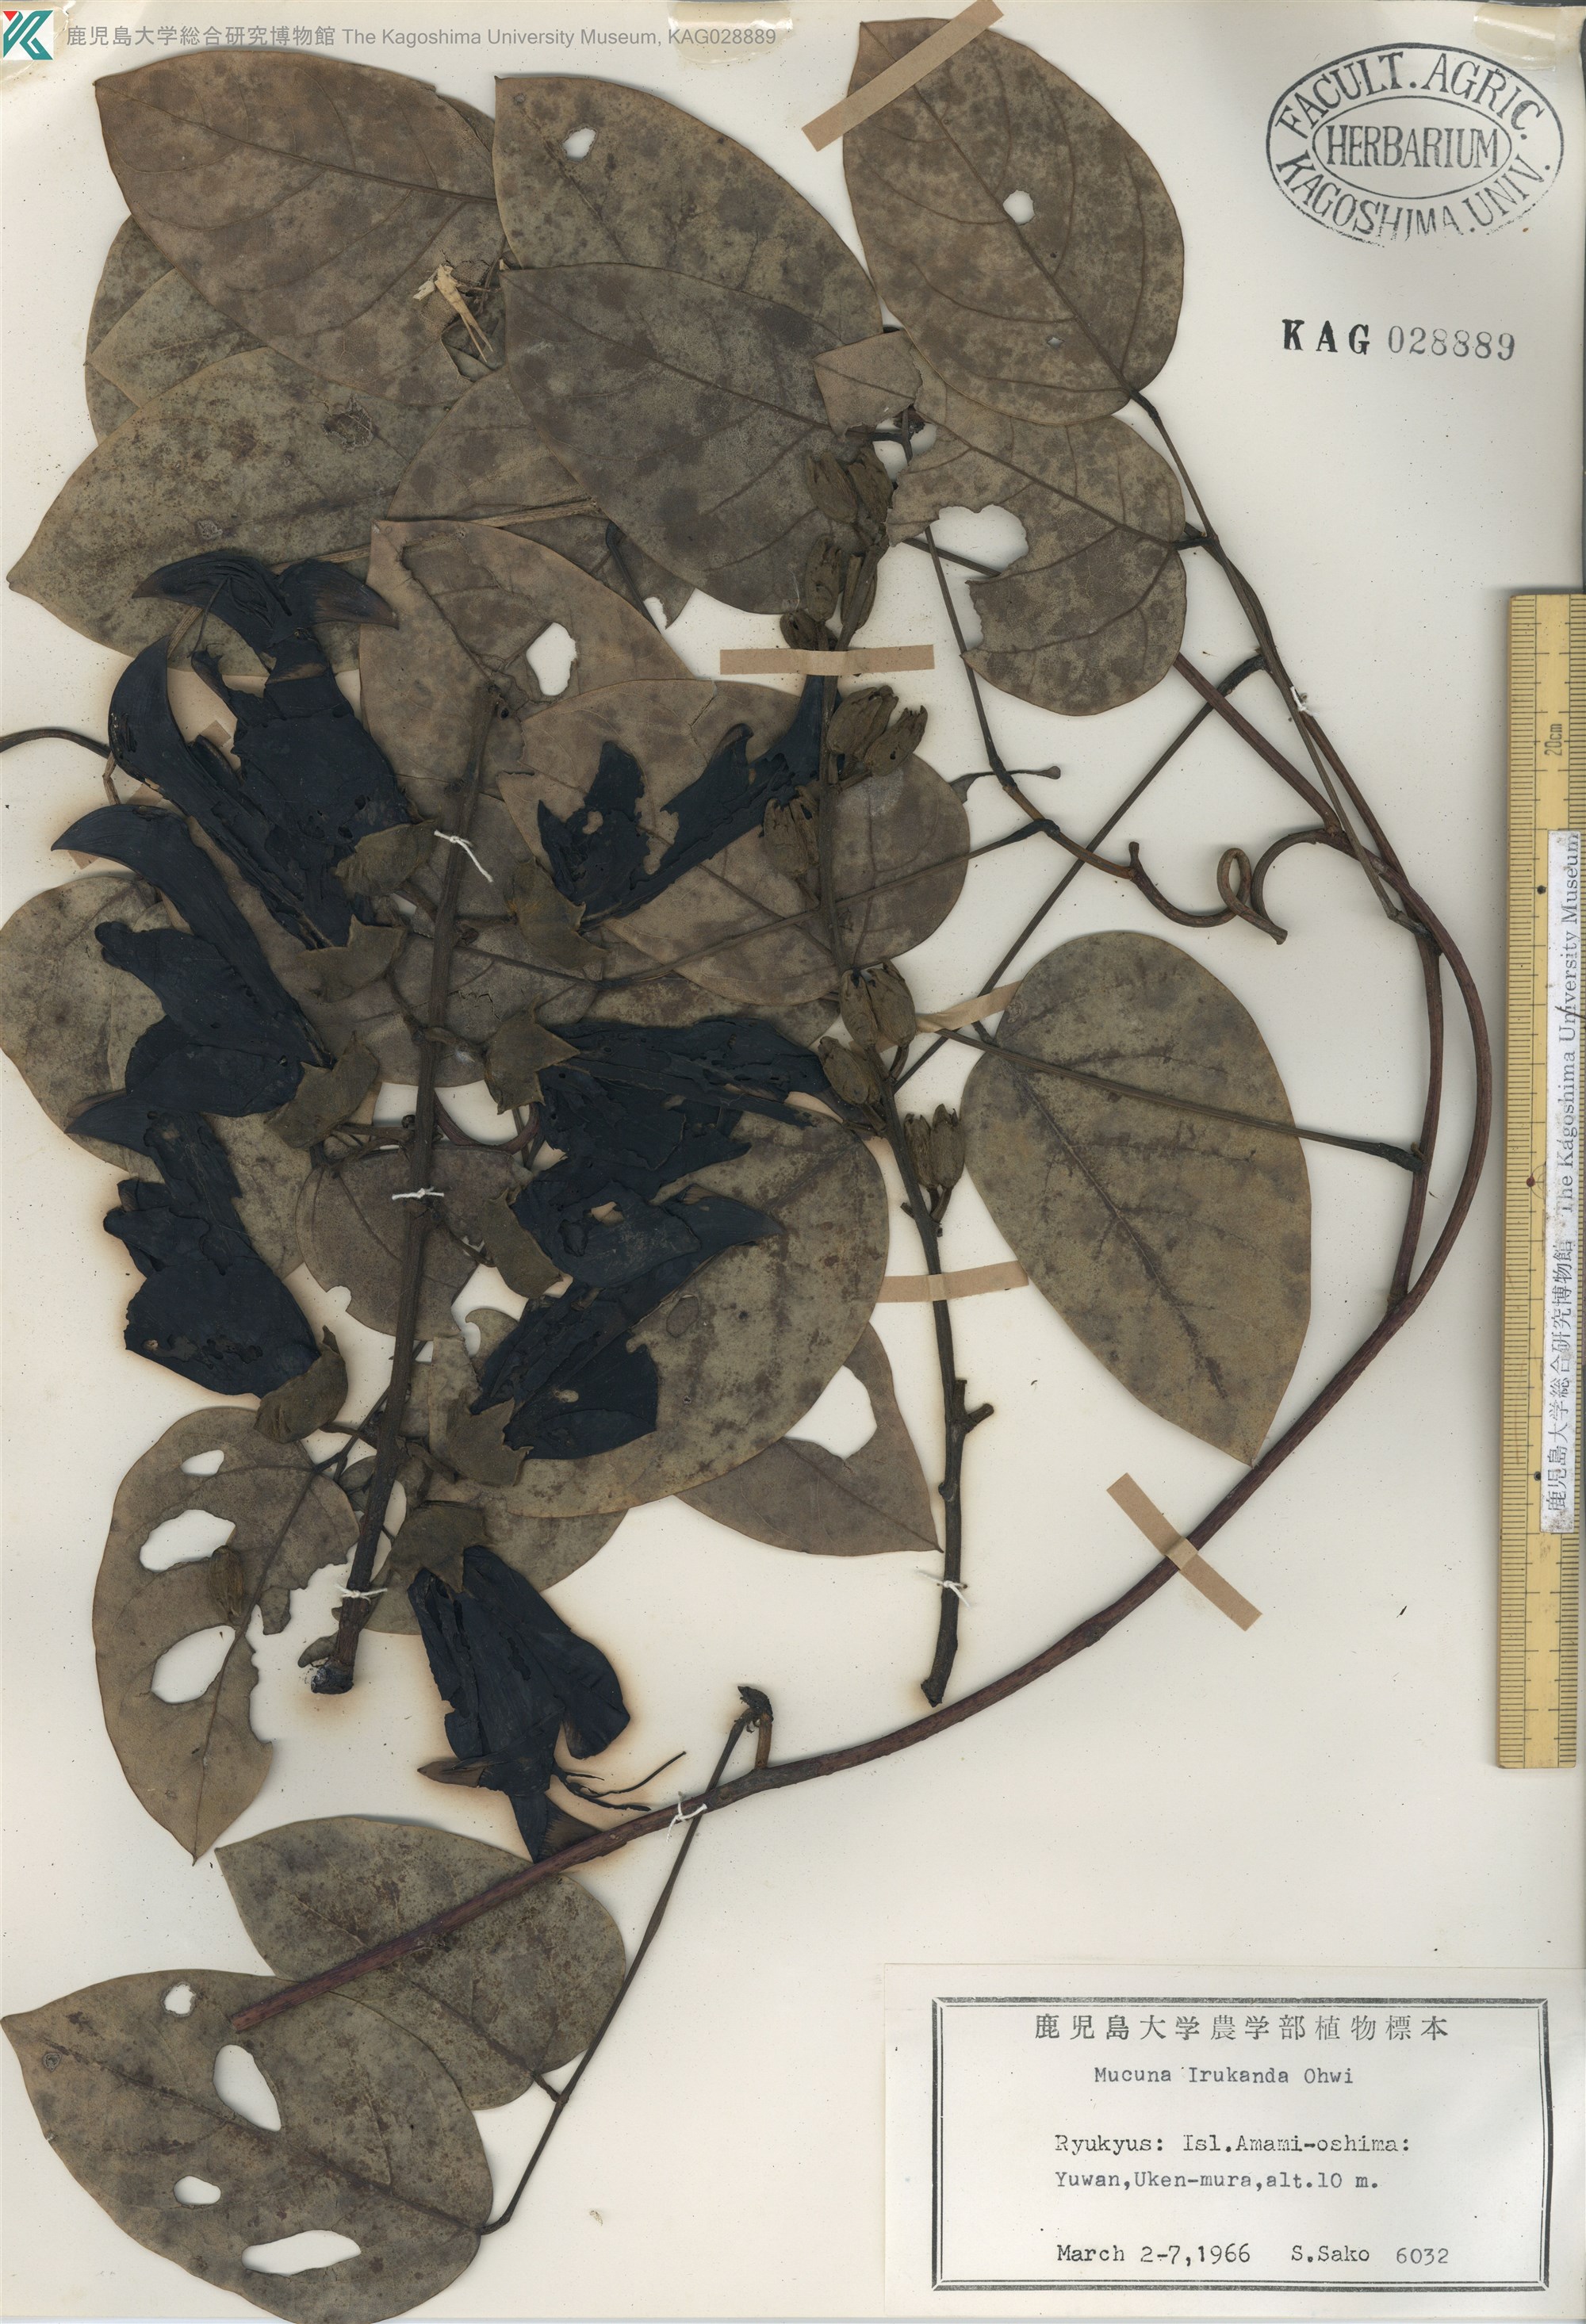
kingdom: Plantae
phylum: Tracheophyta
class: Magnoliopsida
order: Fabales
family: Fabaceae
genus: Mucuna
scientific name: Mucuna macrocarpa
